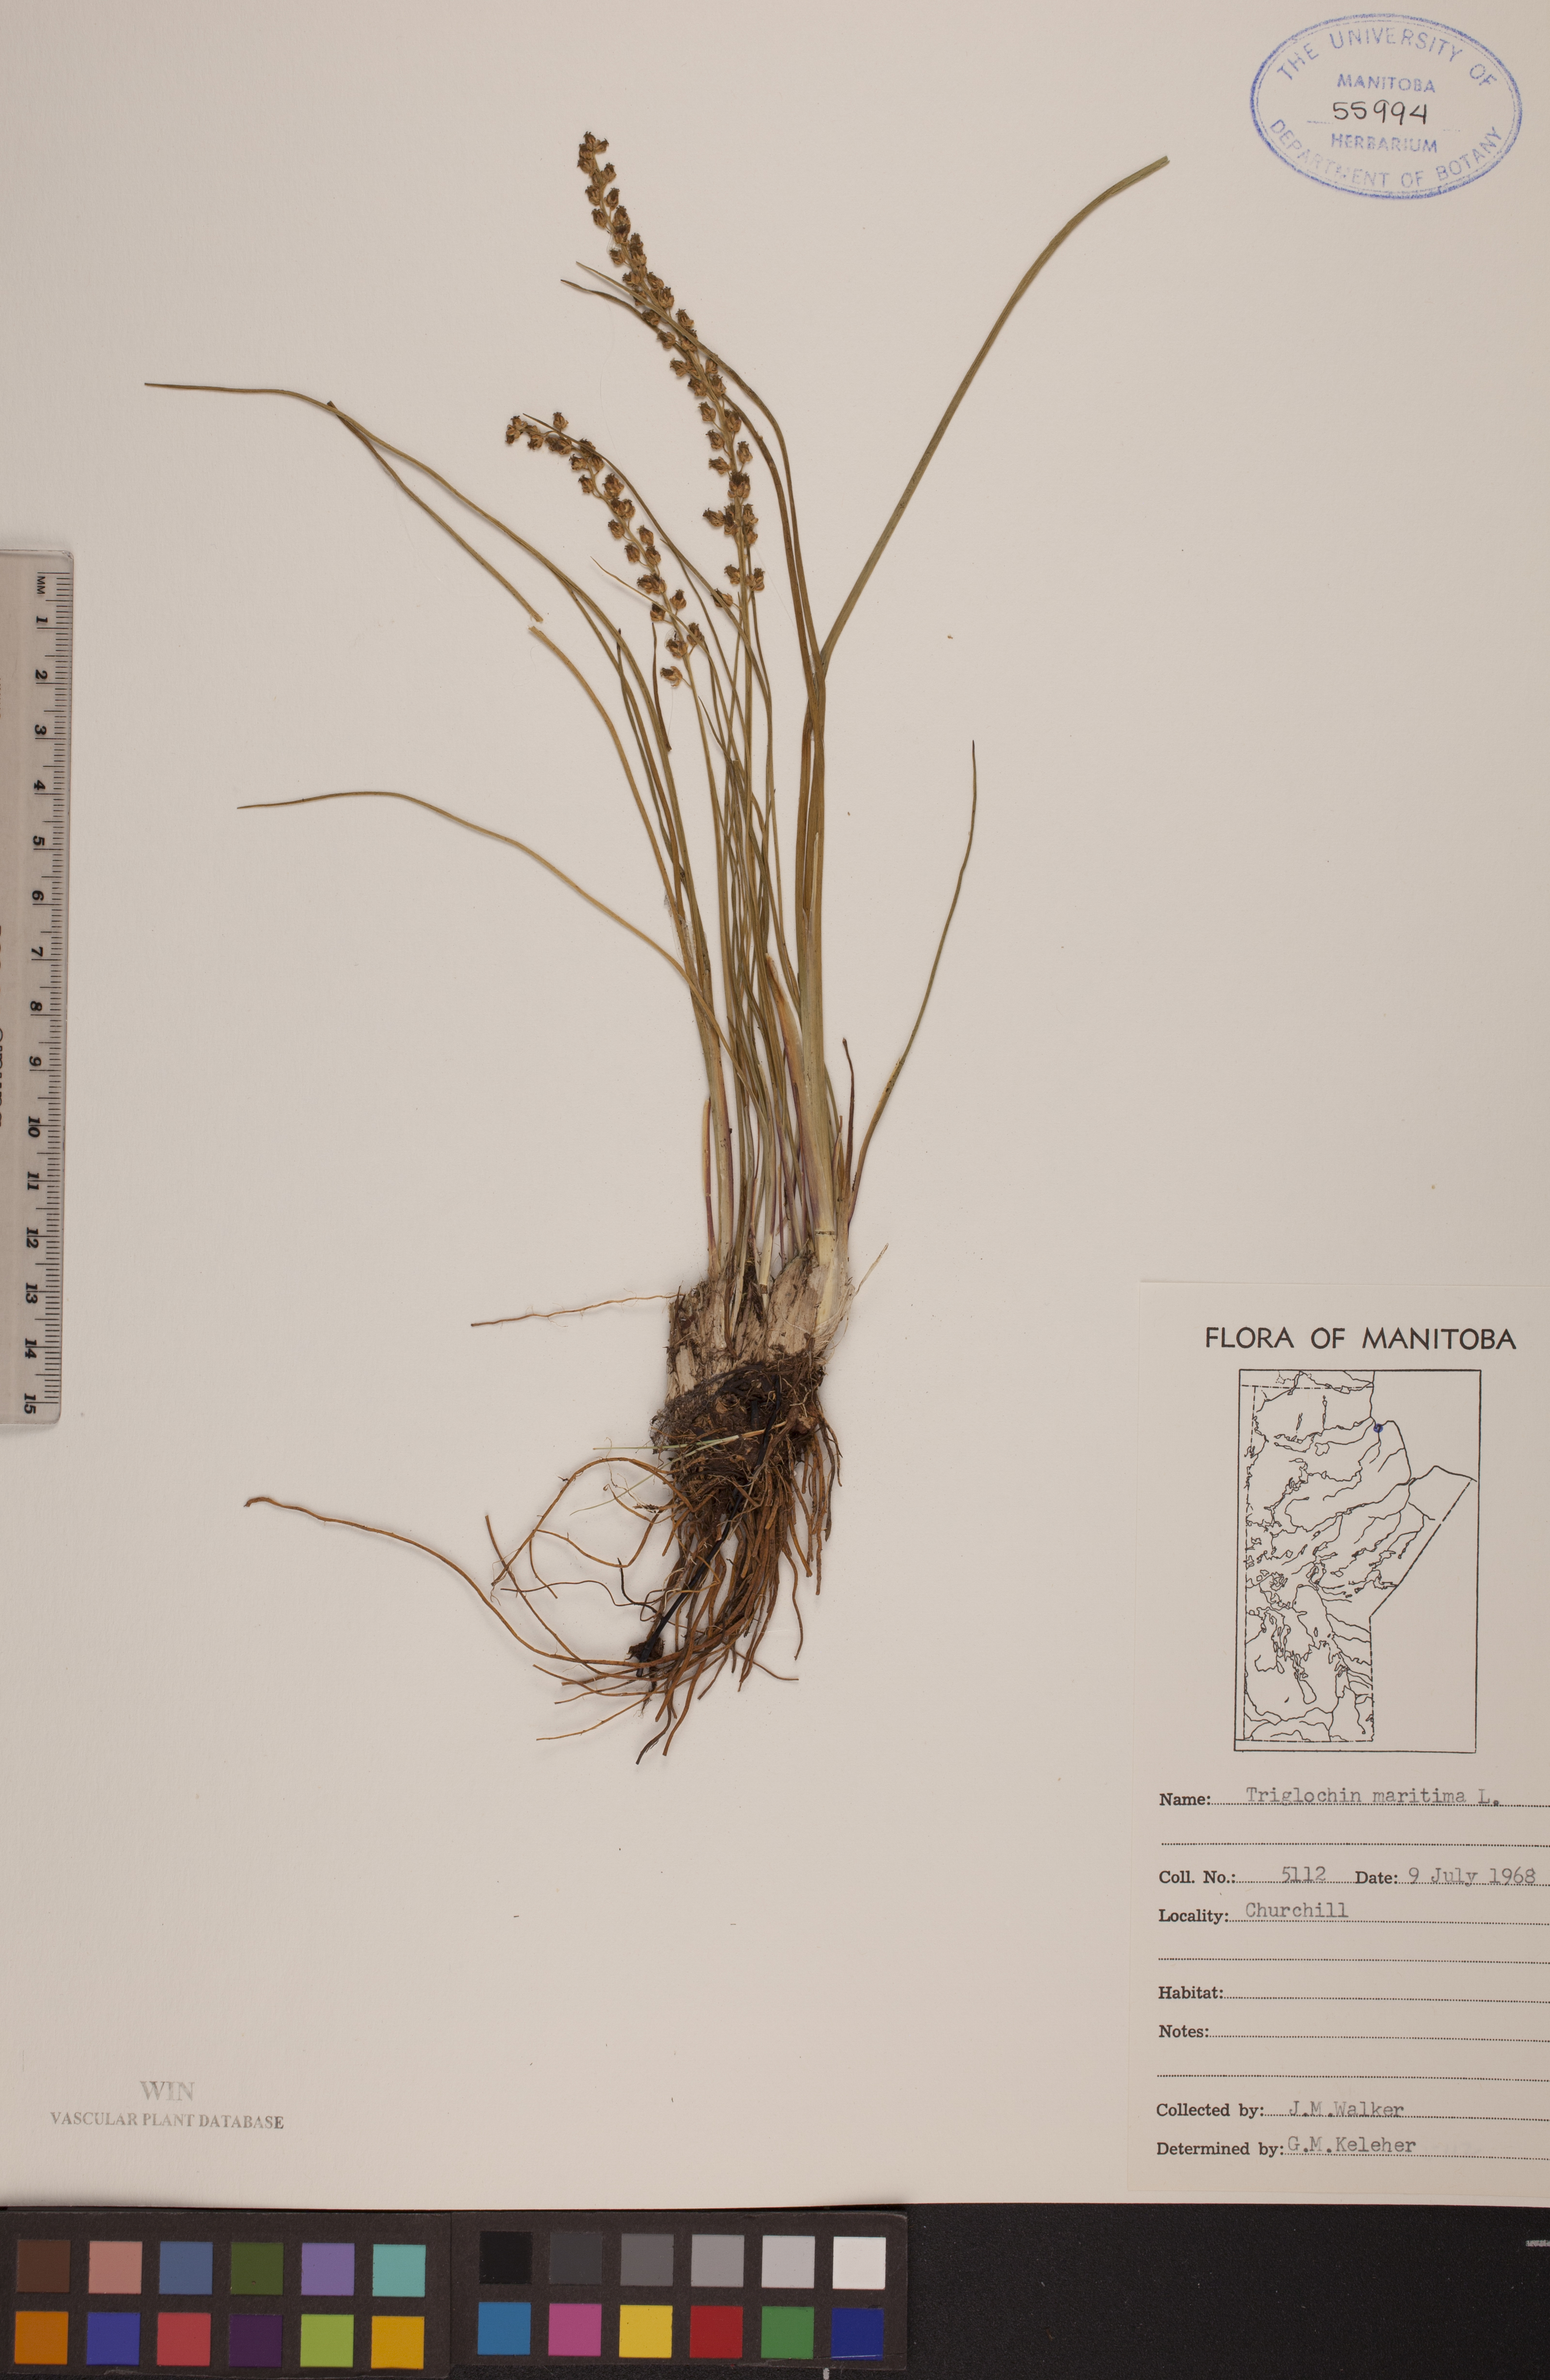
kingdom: Plantae
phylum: Tracheophyta
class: Liliopsida
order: Alismatales
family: Juncaginaceae
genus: Triglochin
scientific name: Triglochin maritima
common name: Sea arrowgrass
